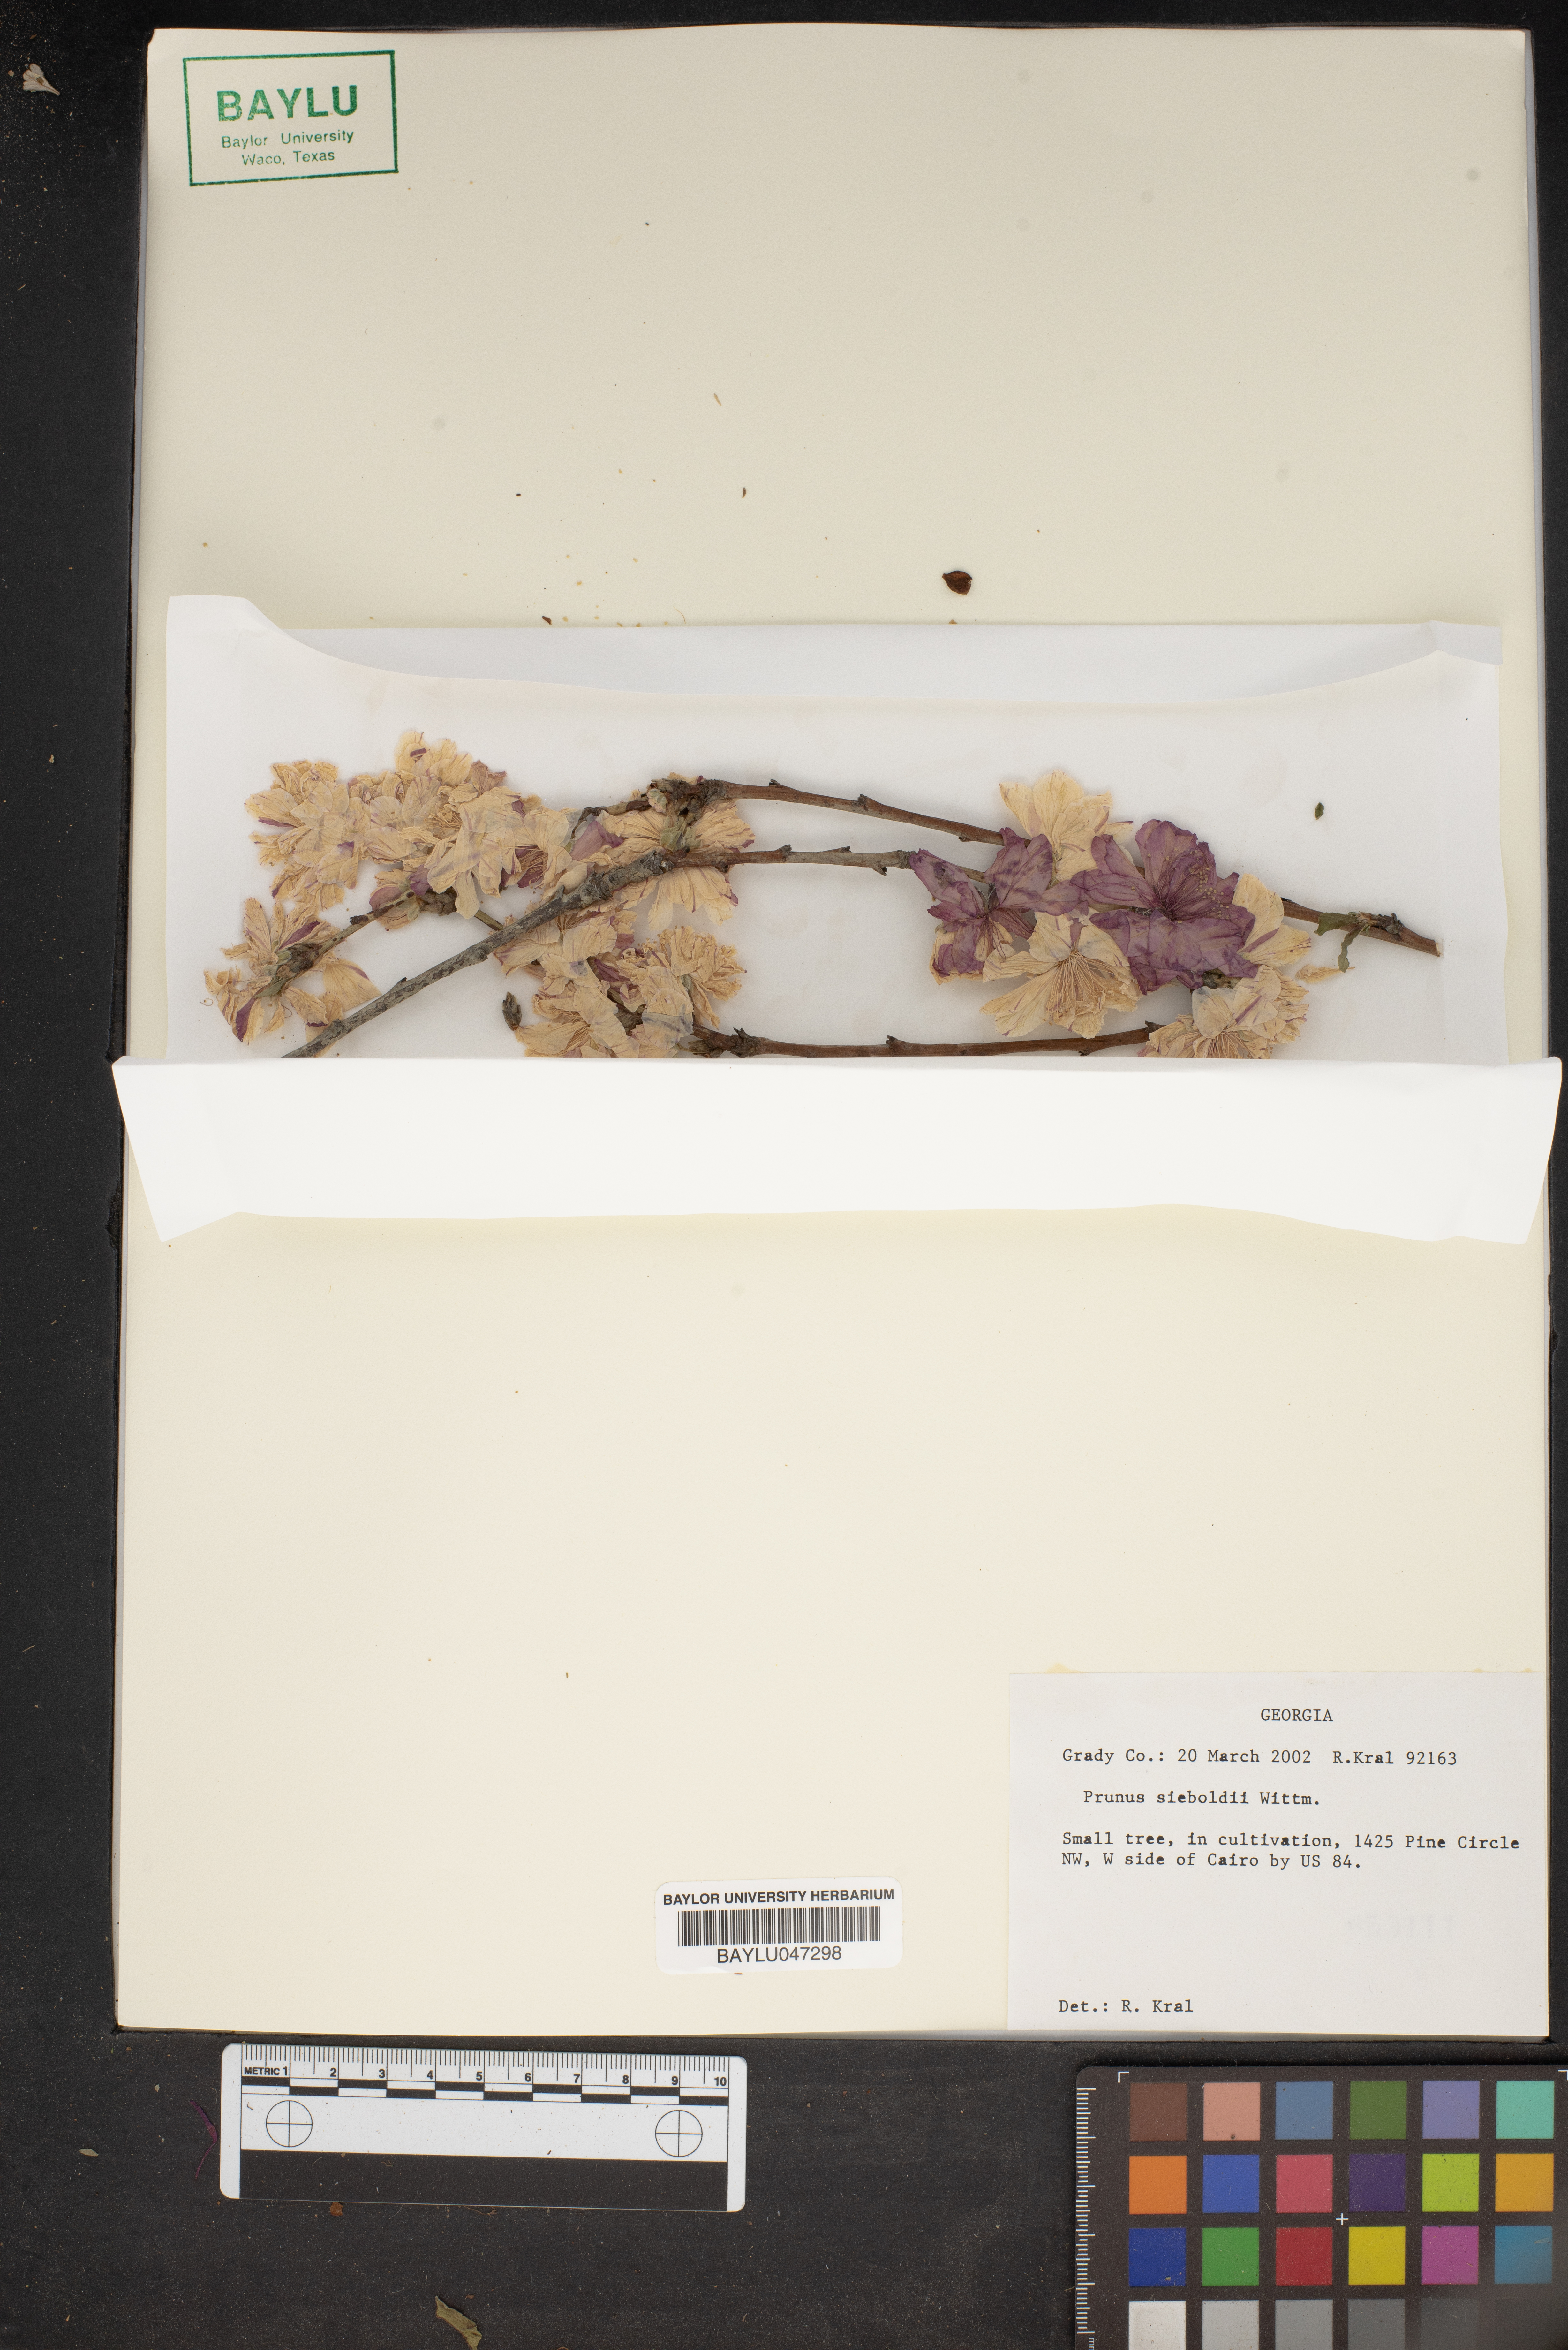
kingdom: Plantae
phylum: Tracheophyta
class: Magnoliopsida
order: Rosales
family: Rosaceae
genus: Prunus
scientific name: Prunus
